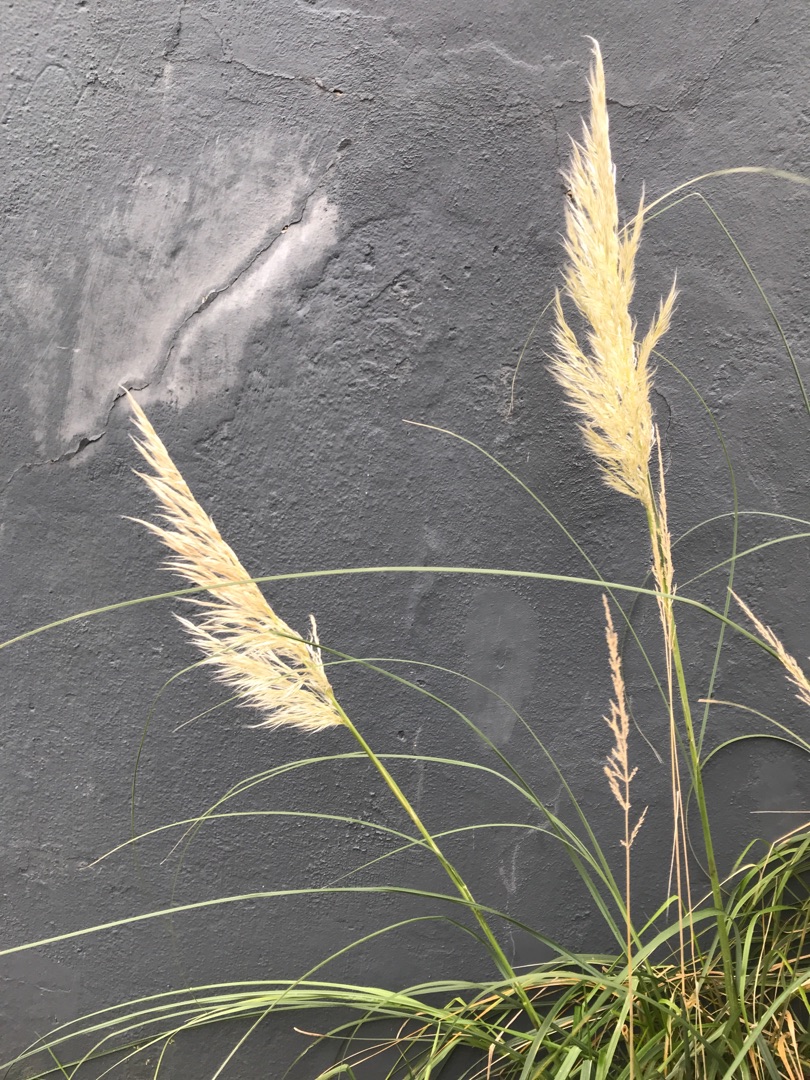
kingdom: Plantae
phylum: Tracheophyta
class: Liliopsida
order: Poales
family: Poaceae
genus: Cortaderia
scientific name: Cortaderia
